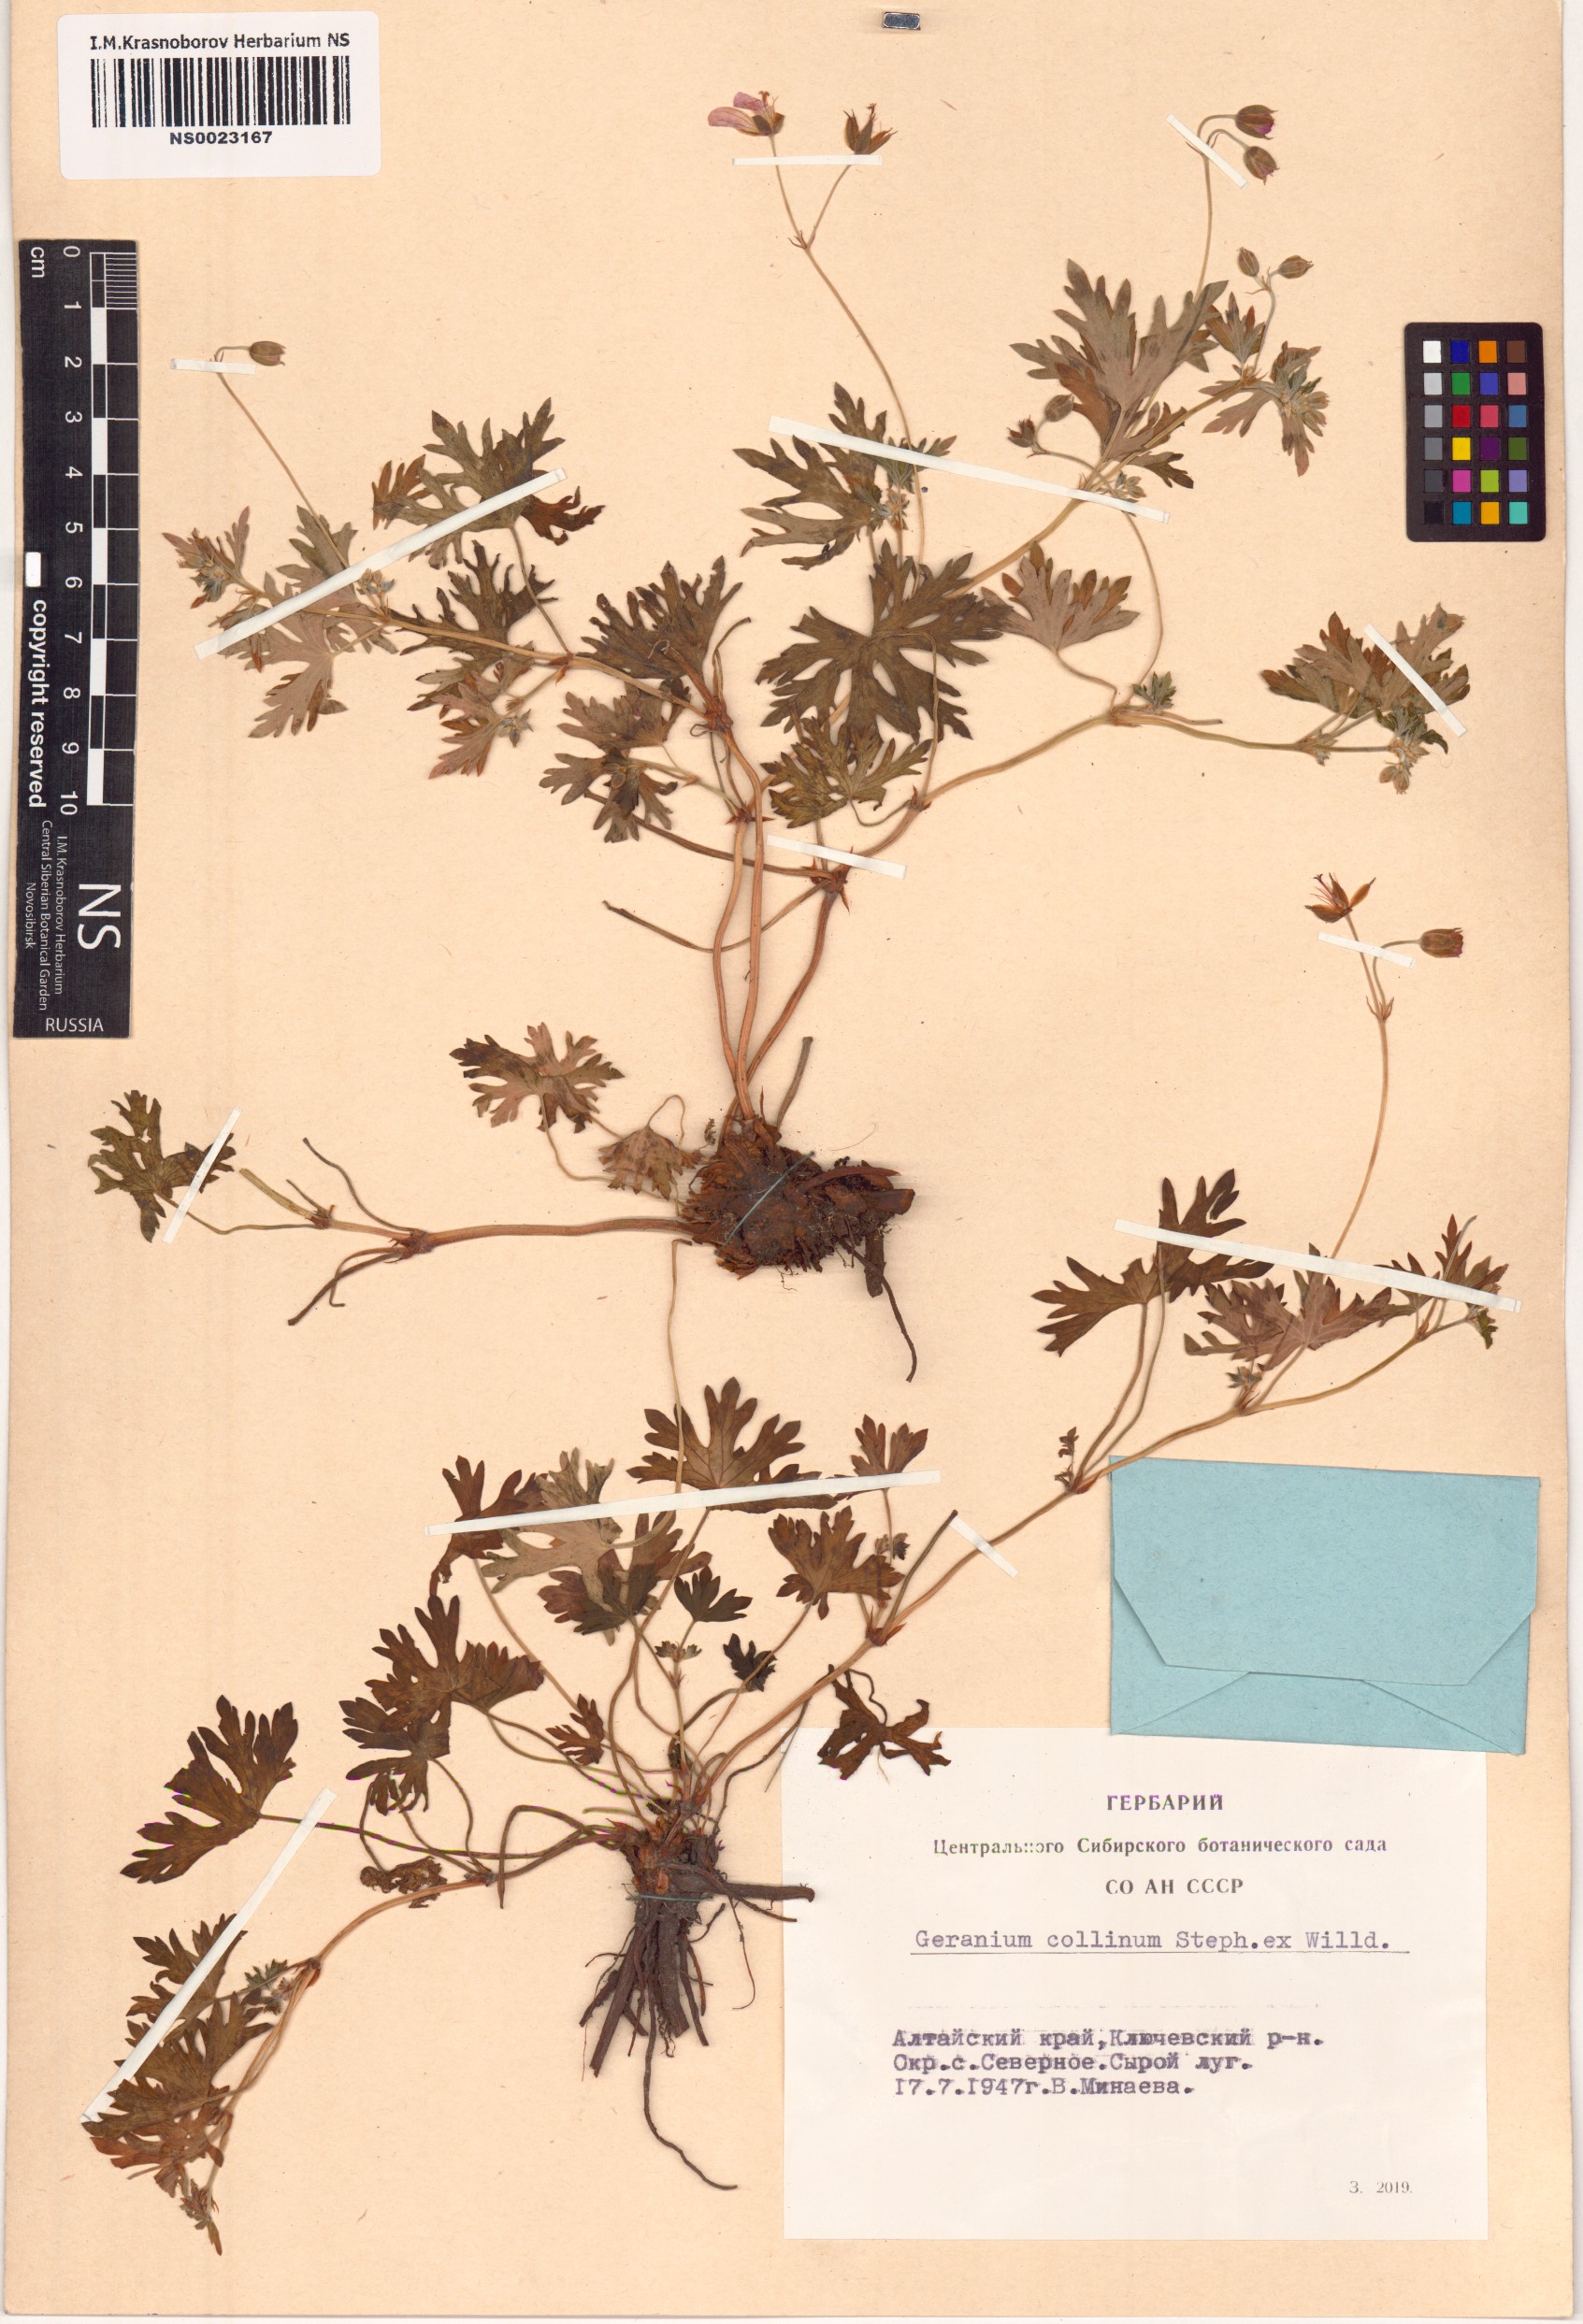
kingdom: Plantae
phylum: Tracheophyta
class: Magnoliopsida
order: Geraniales
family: Geraniaceae
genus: Geranium
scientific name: Geranium collinum
